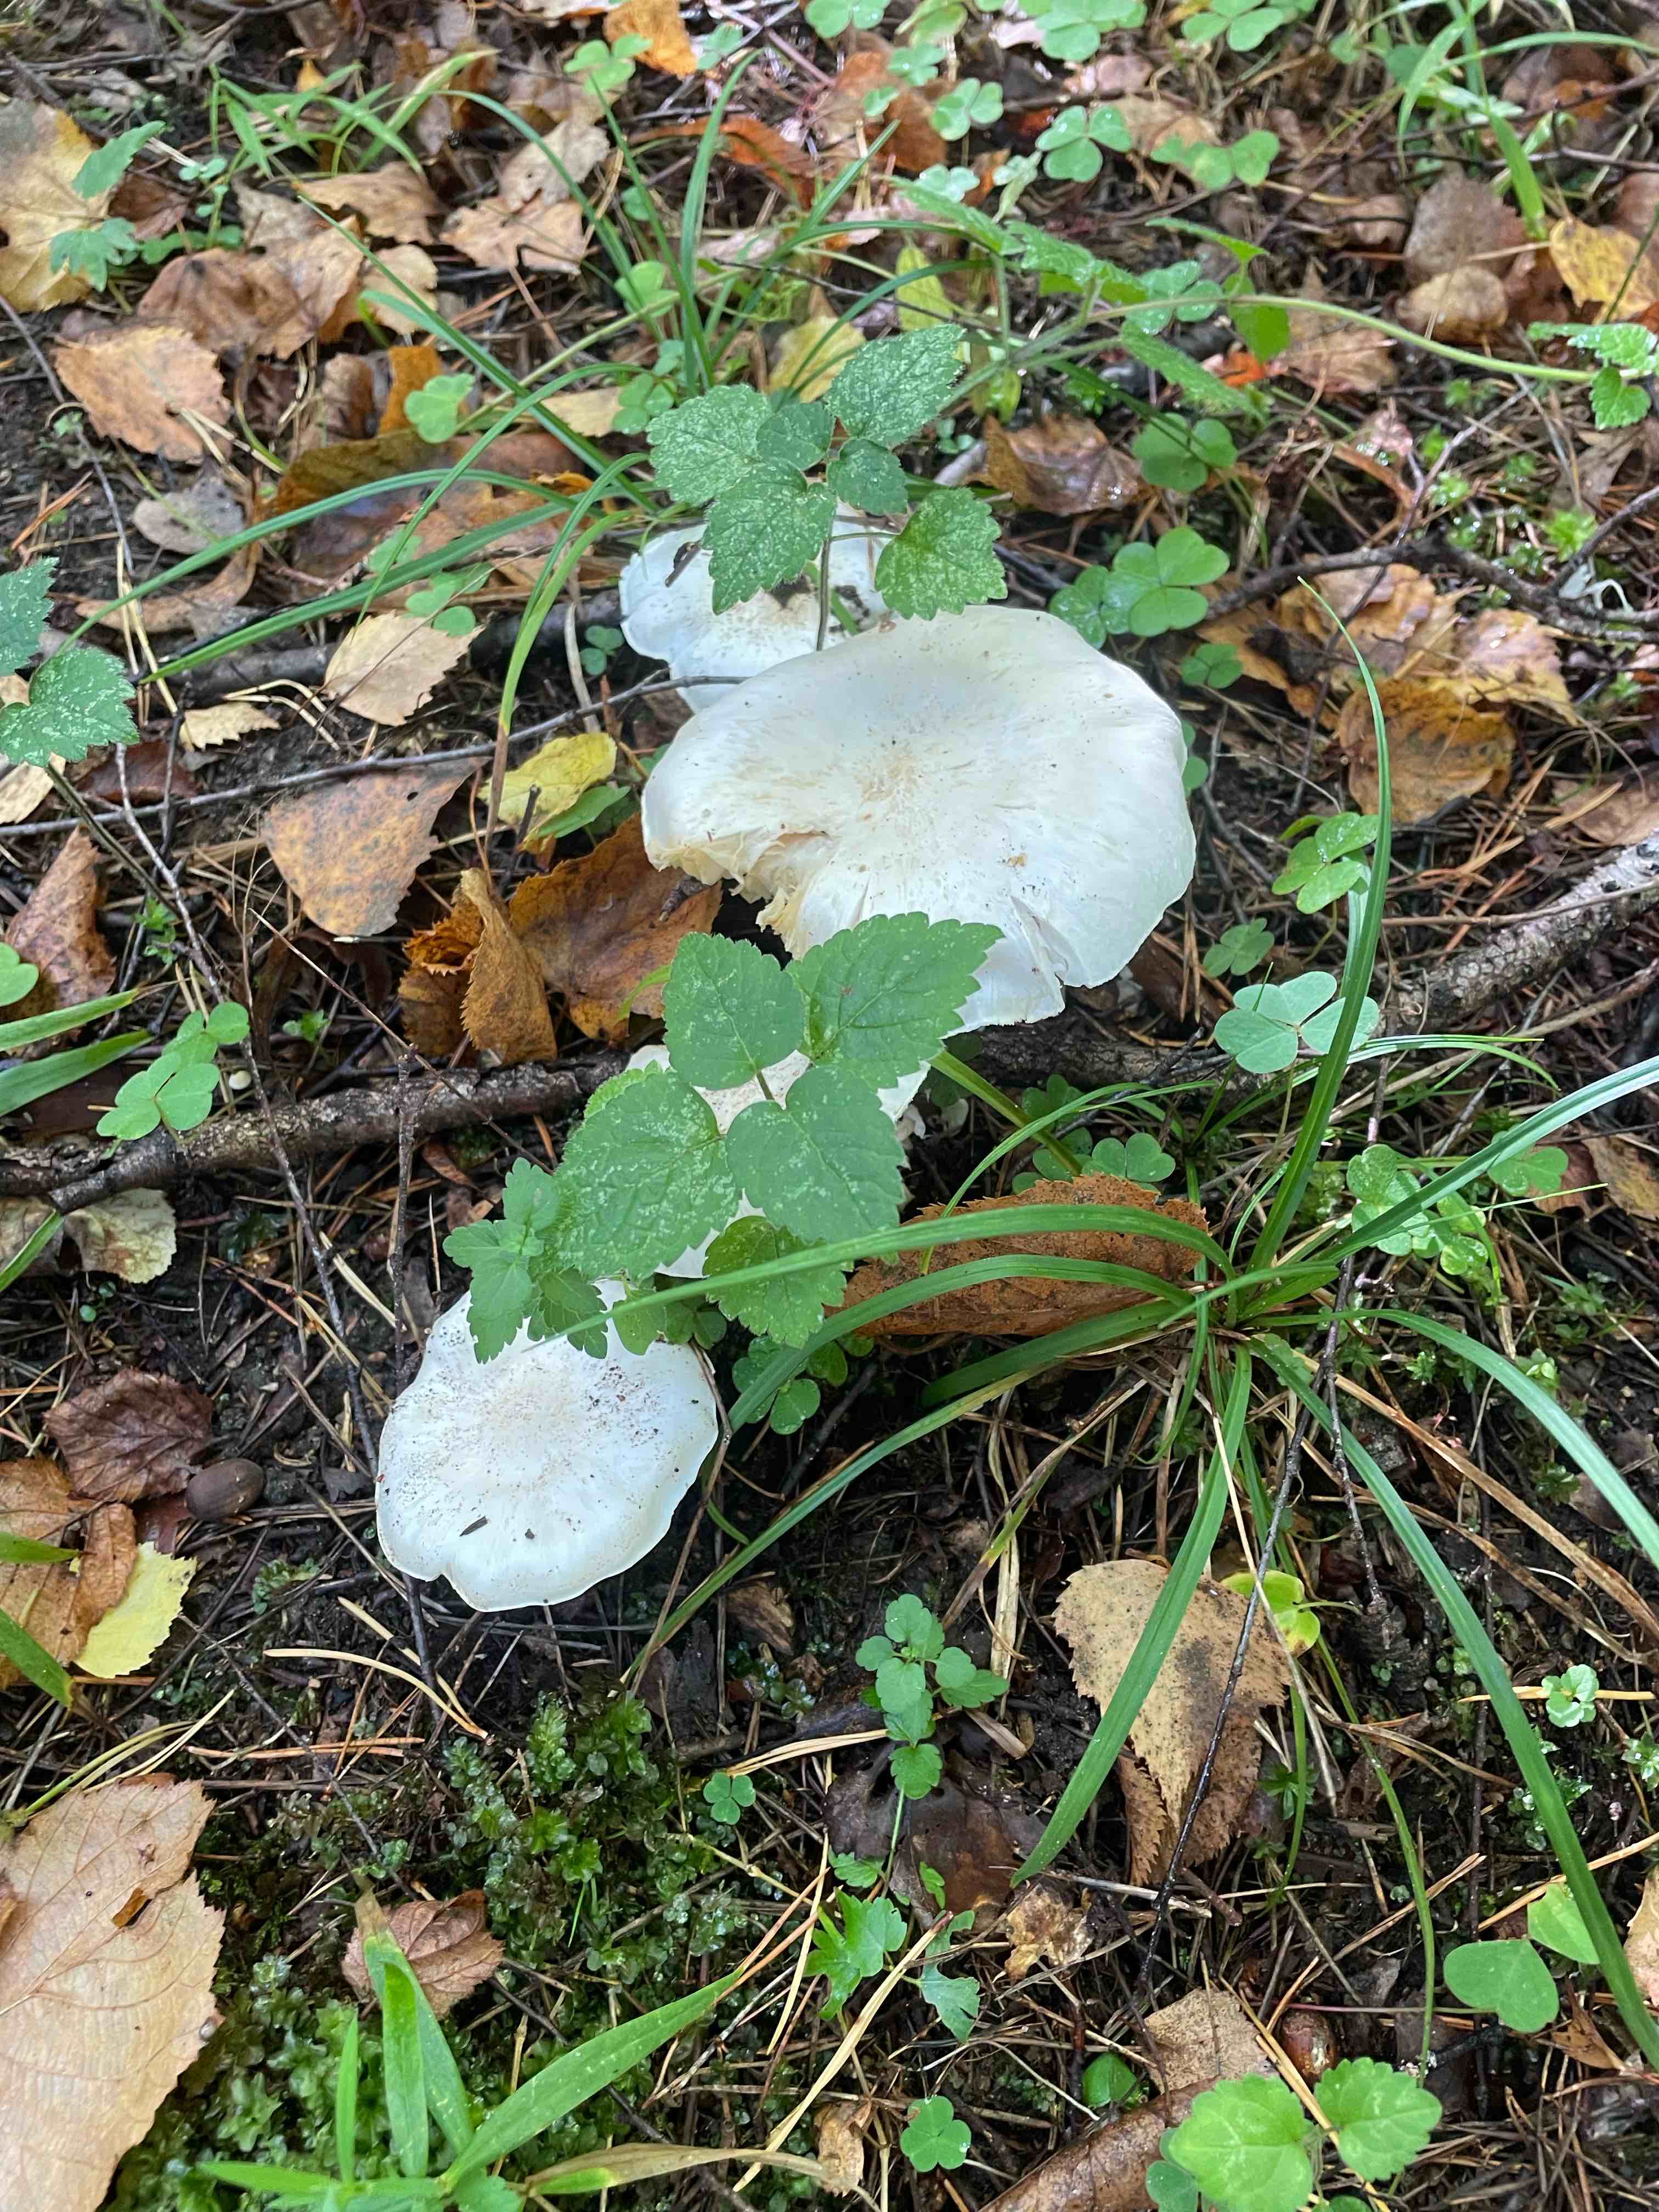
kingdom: Fungi
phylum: Basidiomycota
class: Agaricomycetes
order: Agaricales
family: Tricholomataceae
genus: Tricholoma
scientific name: Tricholoma columbetta
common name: silke-ridderhat
